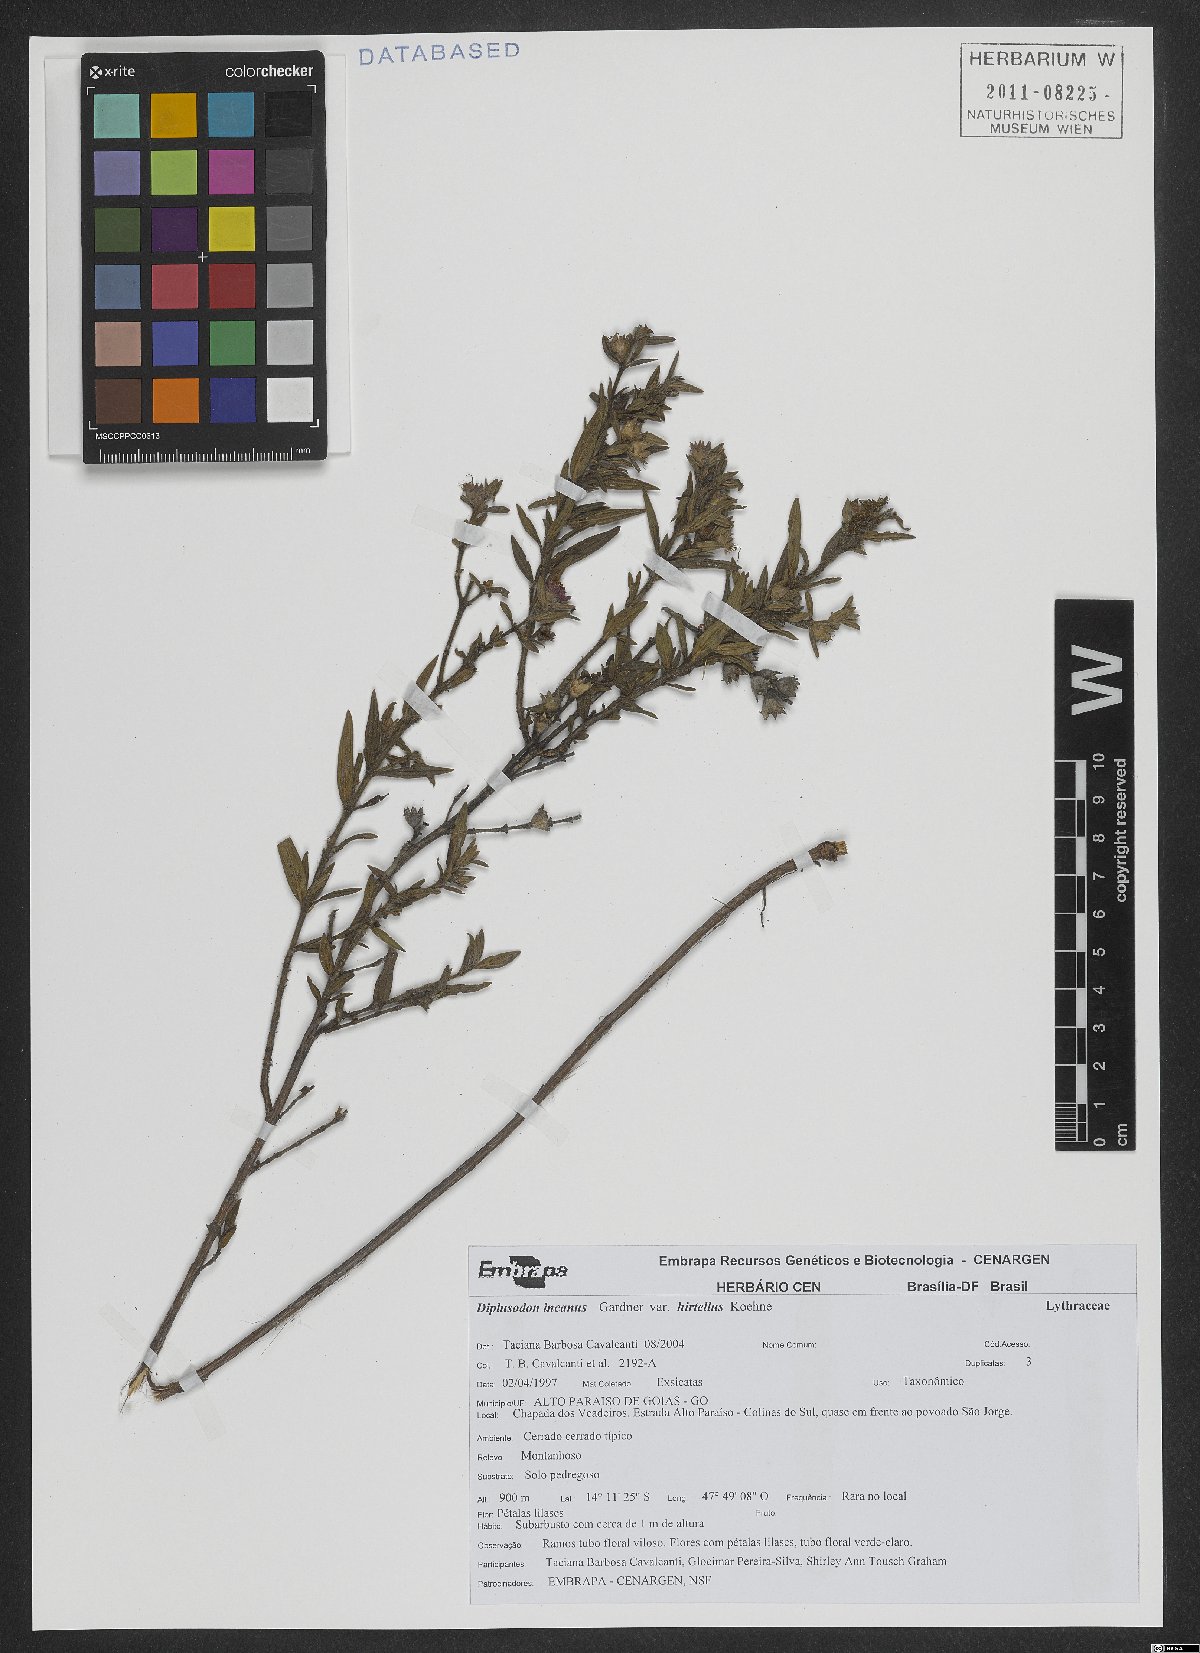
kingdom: Plantae
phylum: Tracheophyta
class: Magnoliopsida
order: Myrtales
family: Lythraceae
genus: Diplusodon
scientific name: Diplusodon incanus
